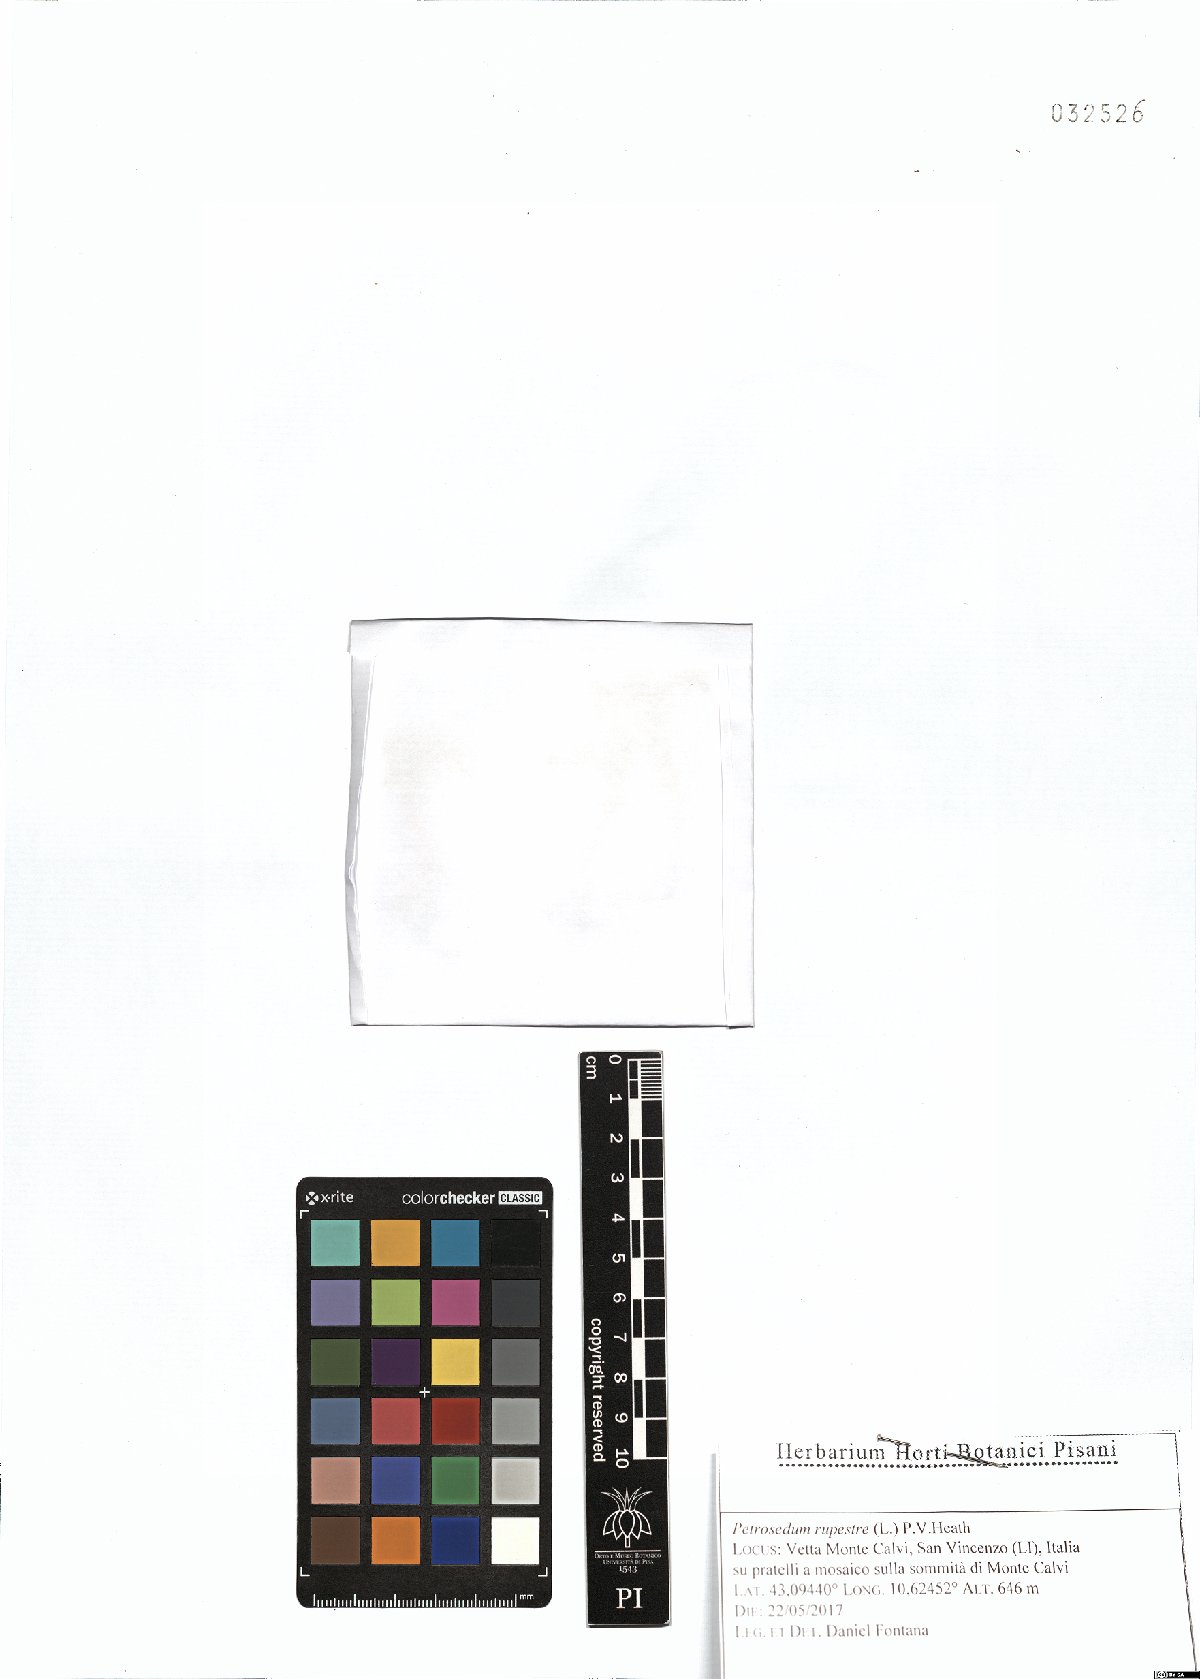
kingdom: Plantae
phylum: Tracheophyta
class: Magnoliopsida
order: Saxifragales
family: Crassulaceae
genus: Petrosedum
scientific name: Petrosedum rupestre
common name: Jenny's stonecrop
